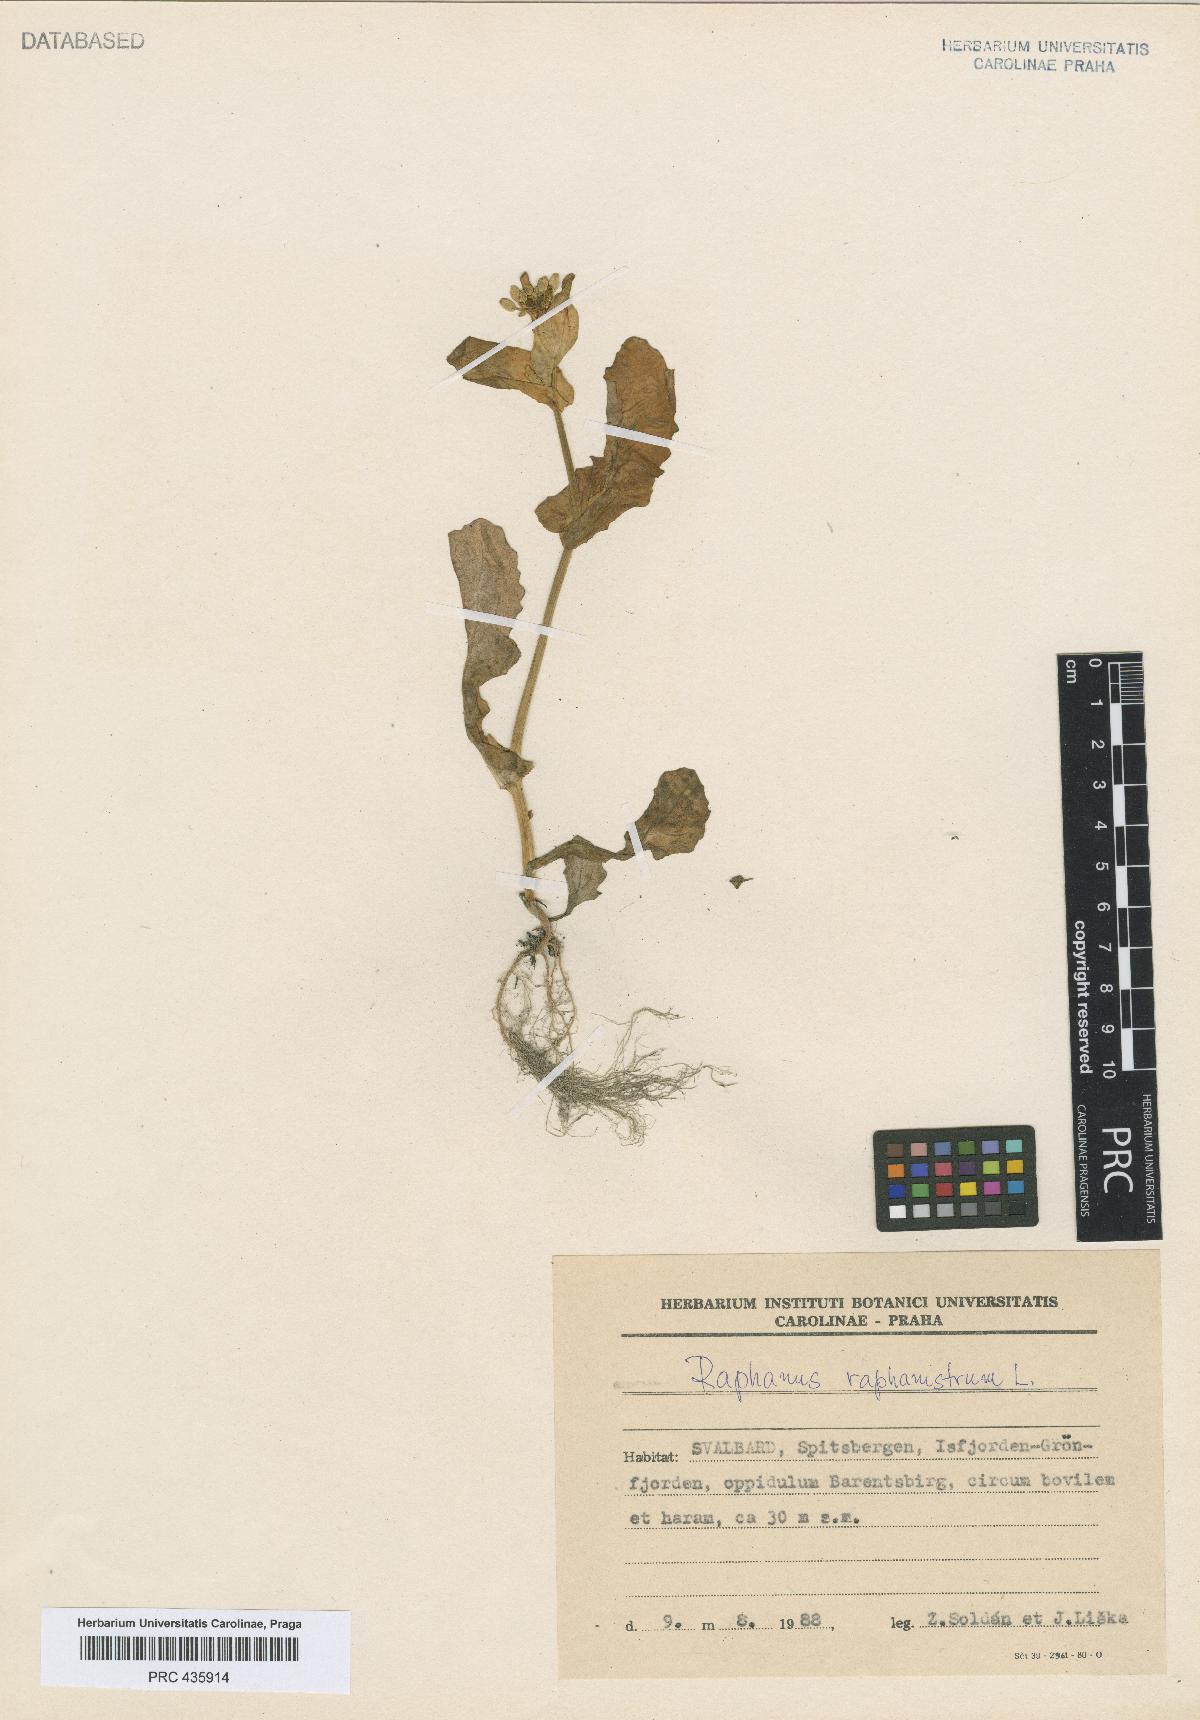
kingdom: Plantae
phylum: Tracheophyta
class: Magnoliopsida
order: Brassicales
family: Brassicaceae
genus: Raphanus
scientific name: Raphanus raphanistrum
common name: Wild radish
